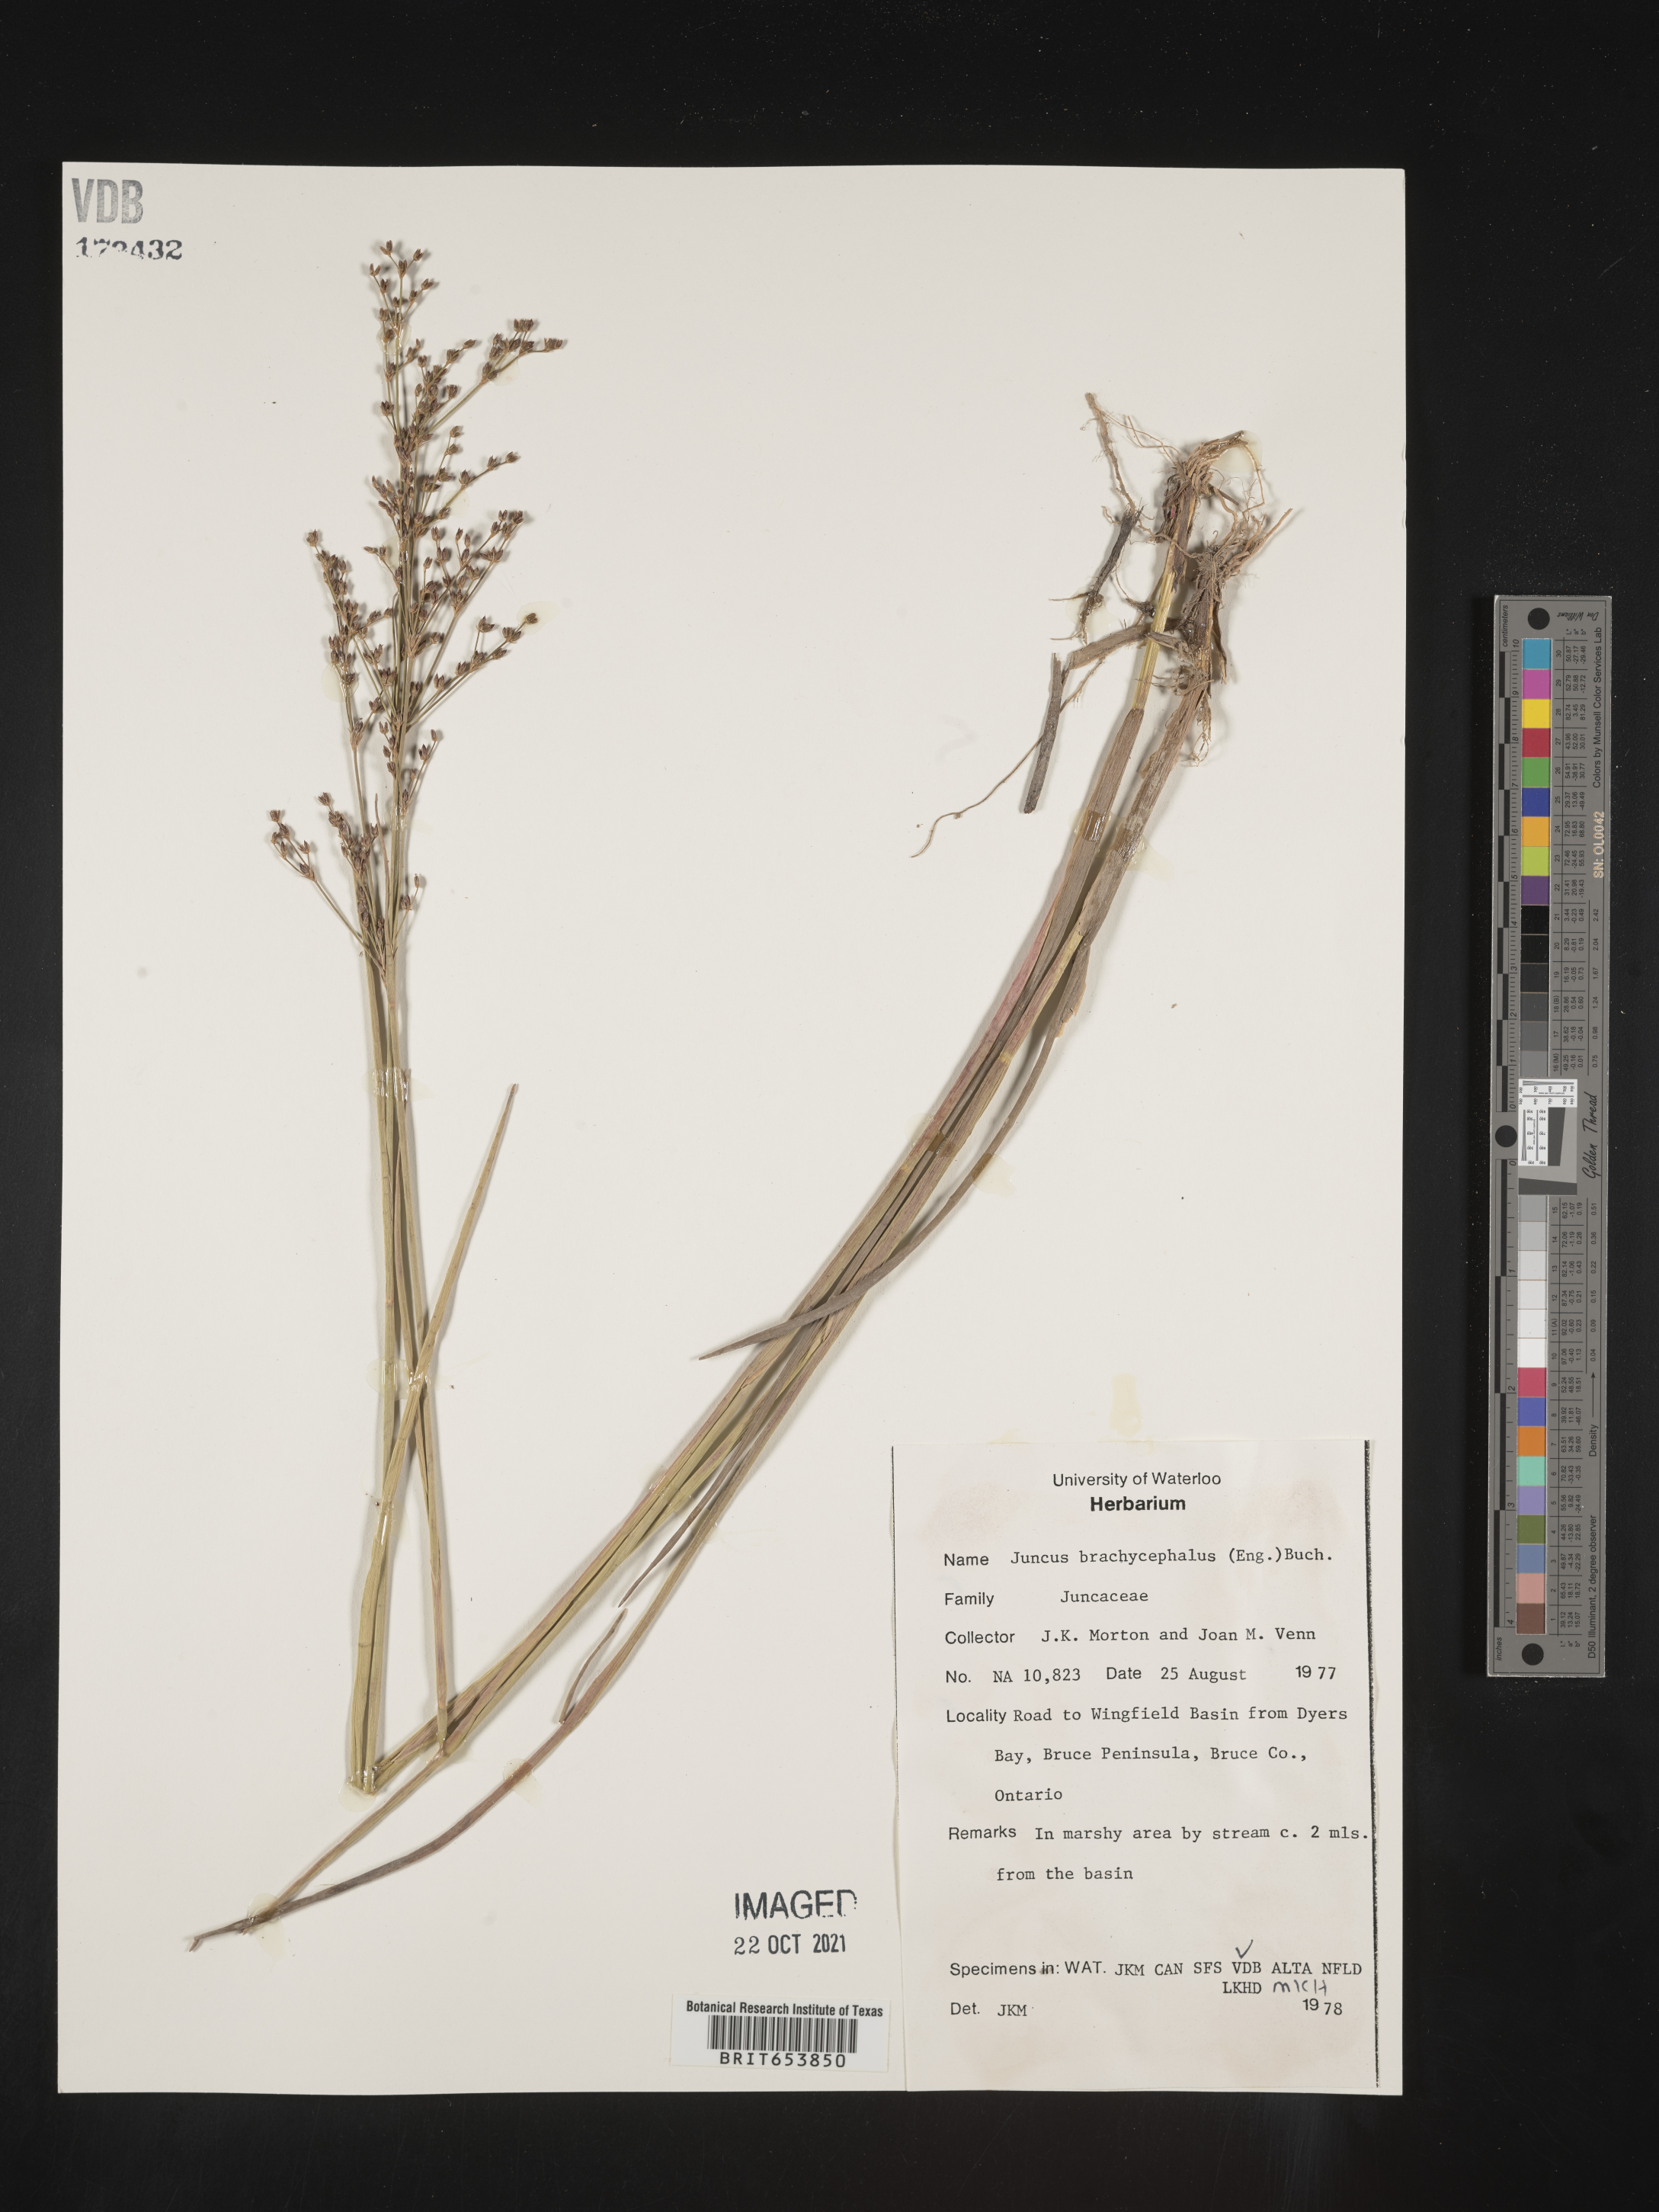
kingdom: Plantae
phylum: Tracheophyta
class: Liliopsida
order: Poales
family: Juncaceae
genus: Juncus
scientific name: Juncus
